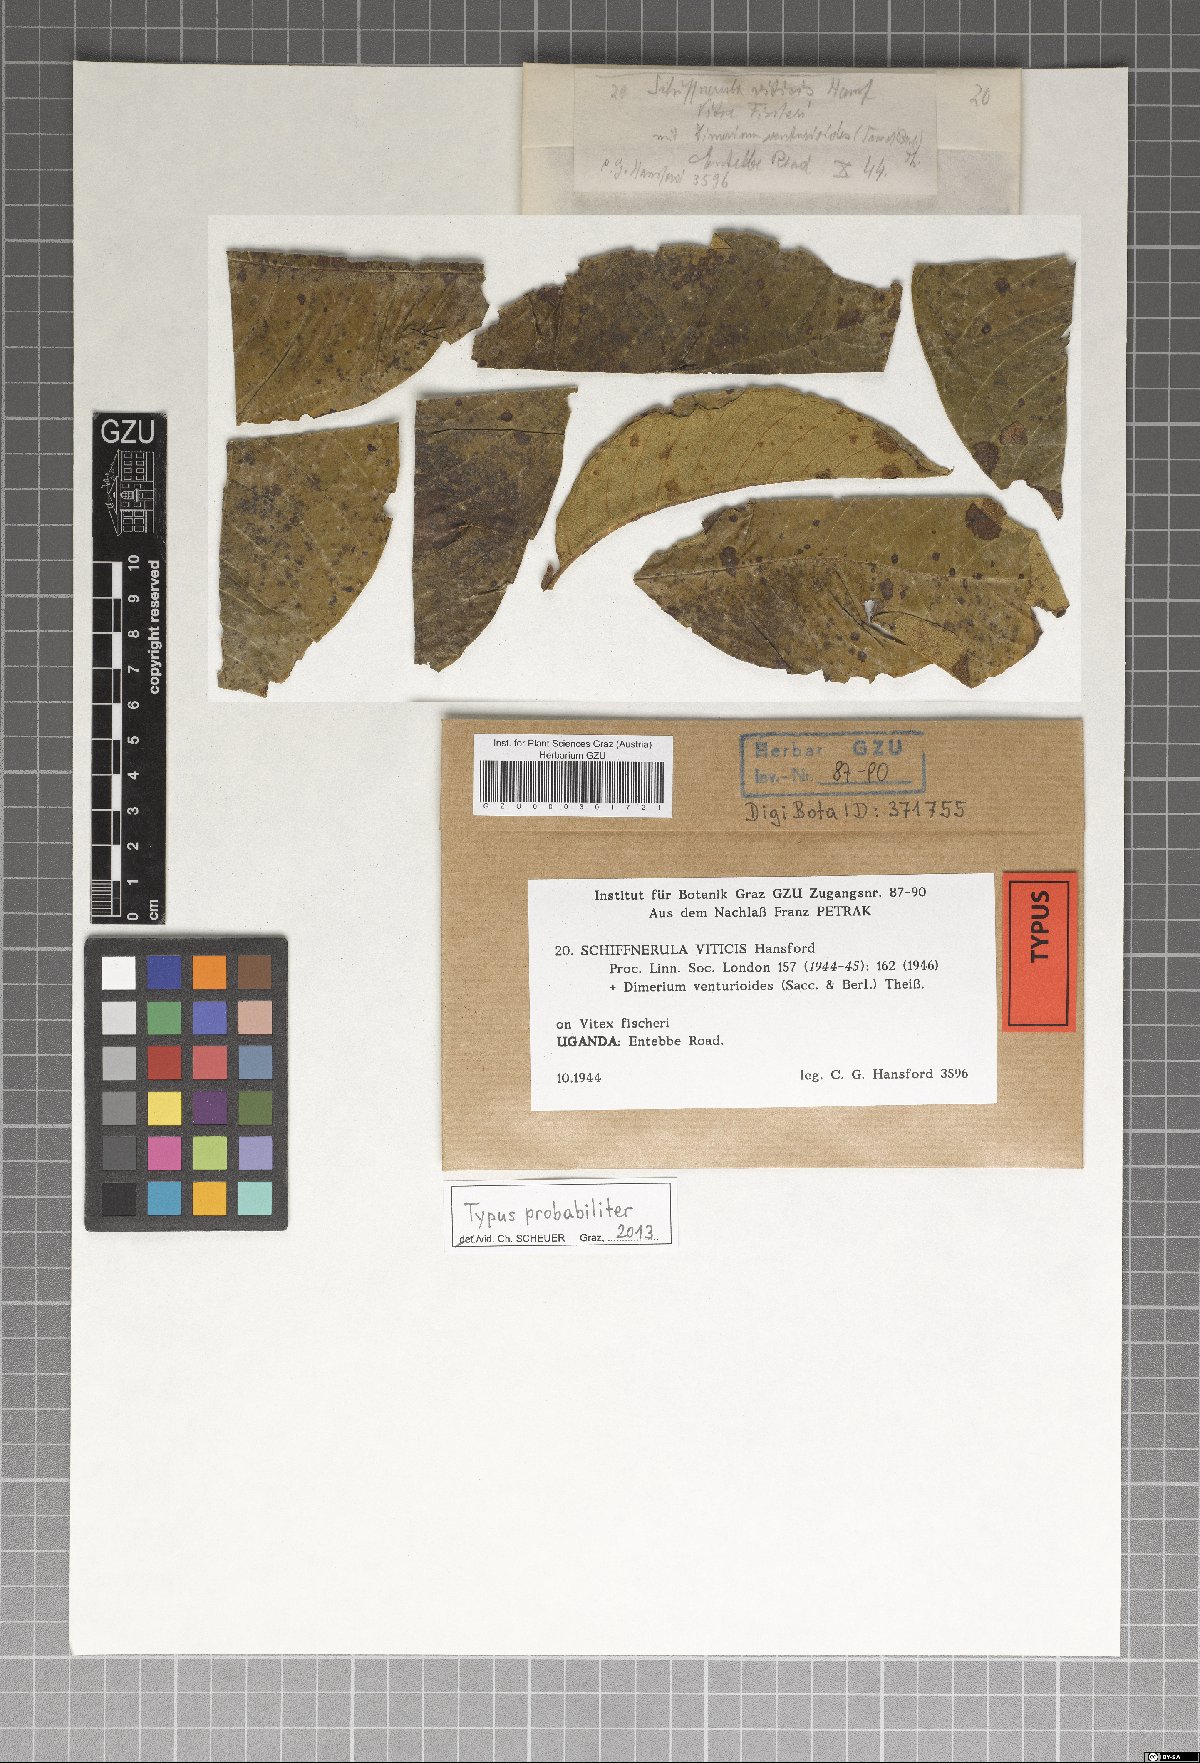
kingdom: Fungi
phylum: Ascomycota
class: Dothideomycetes
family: Englerulaceae
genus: Schiffnerula
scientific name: Schiffnerula viticis
